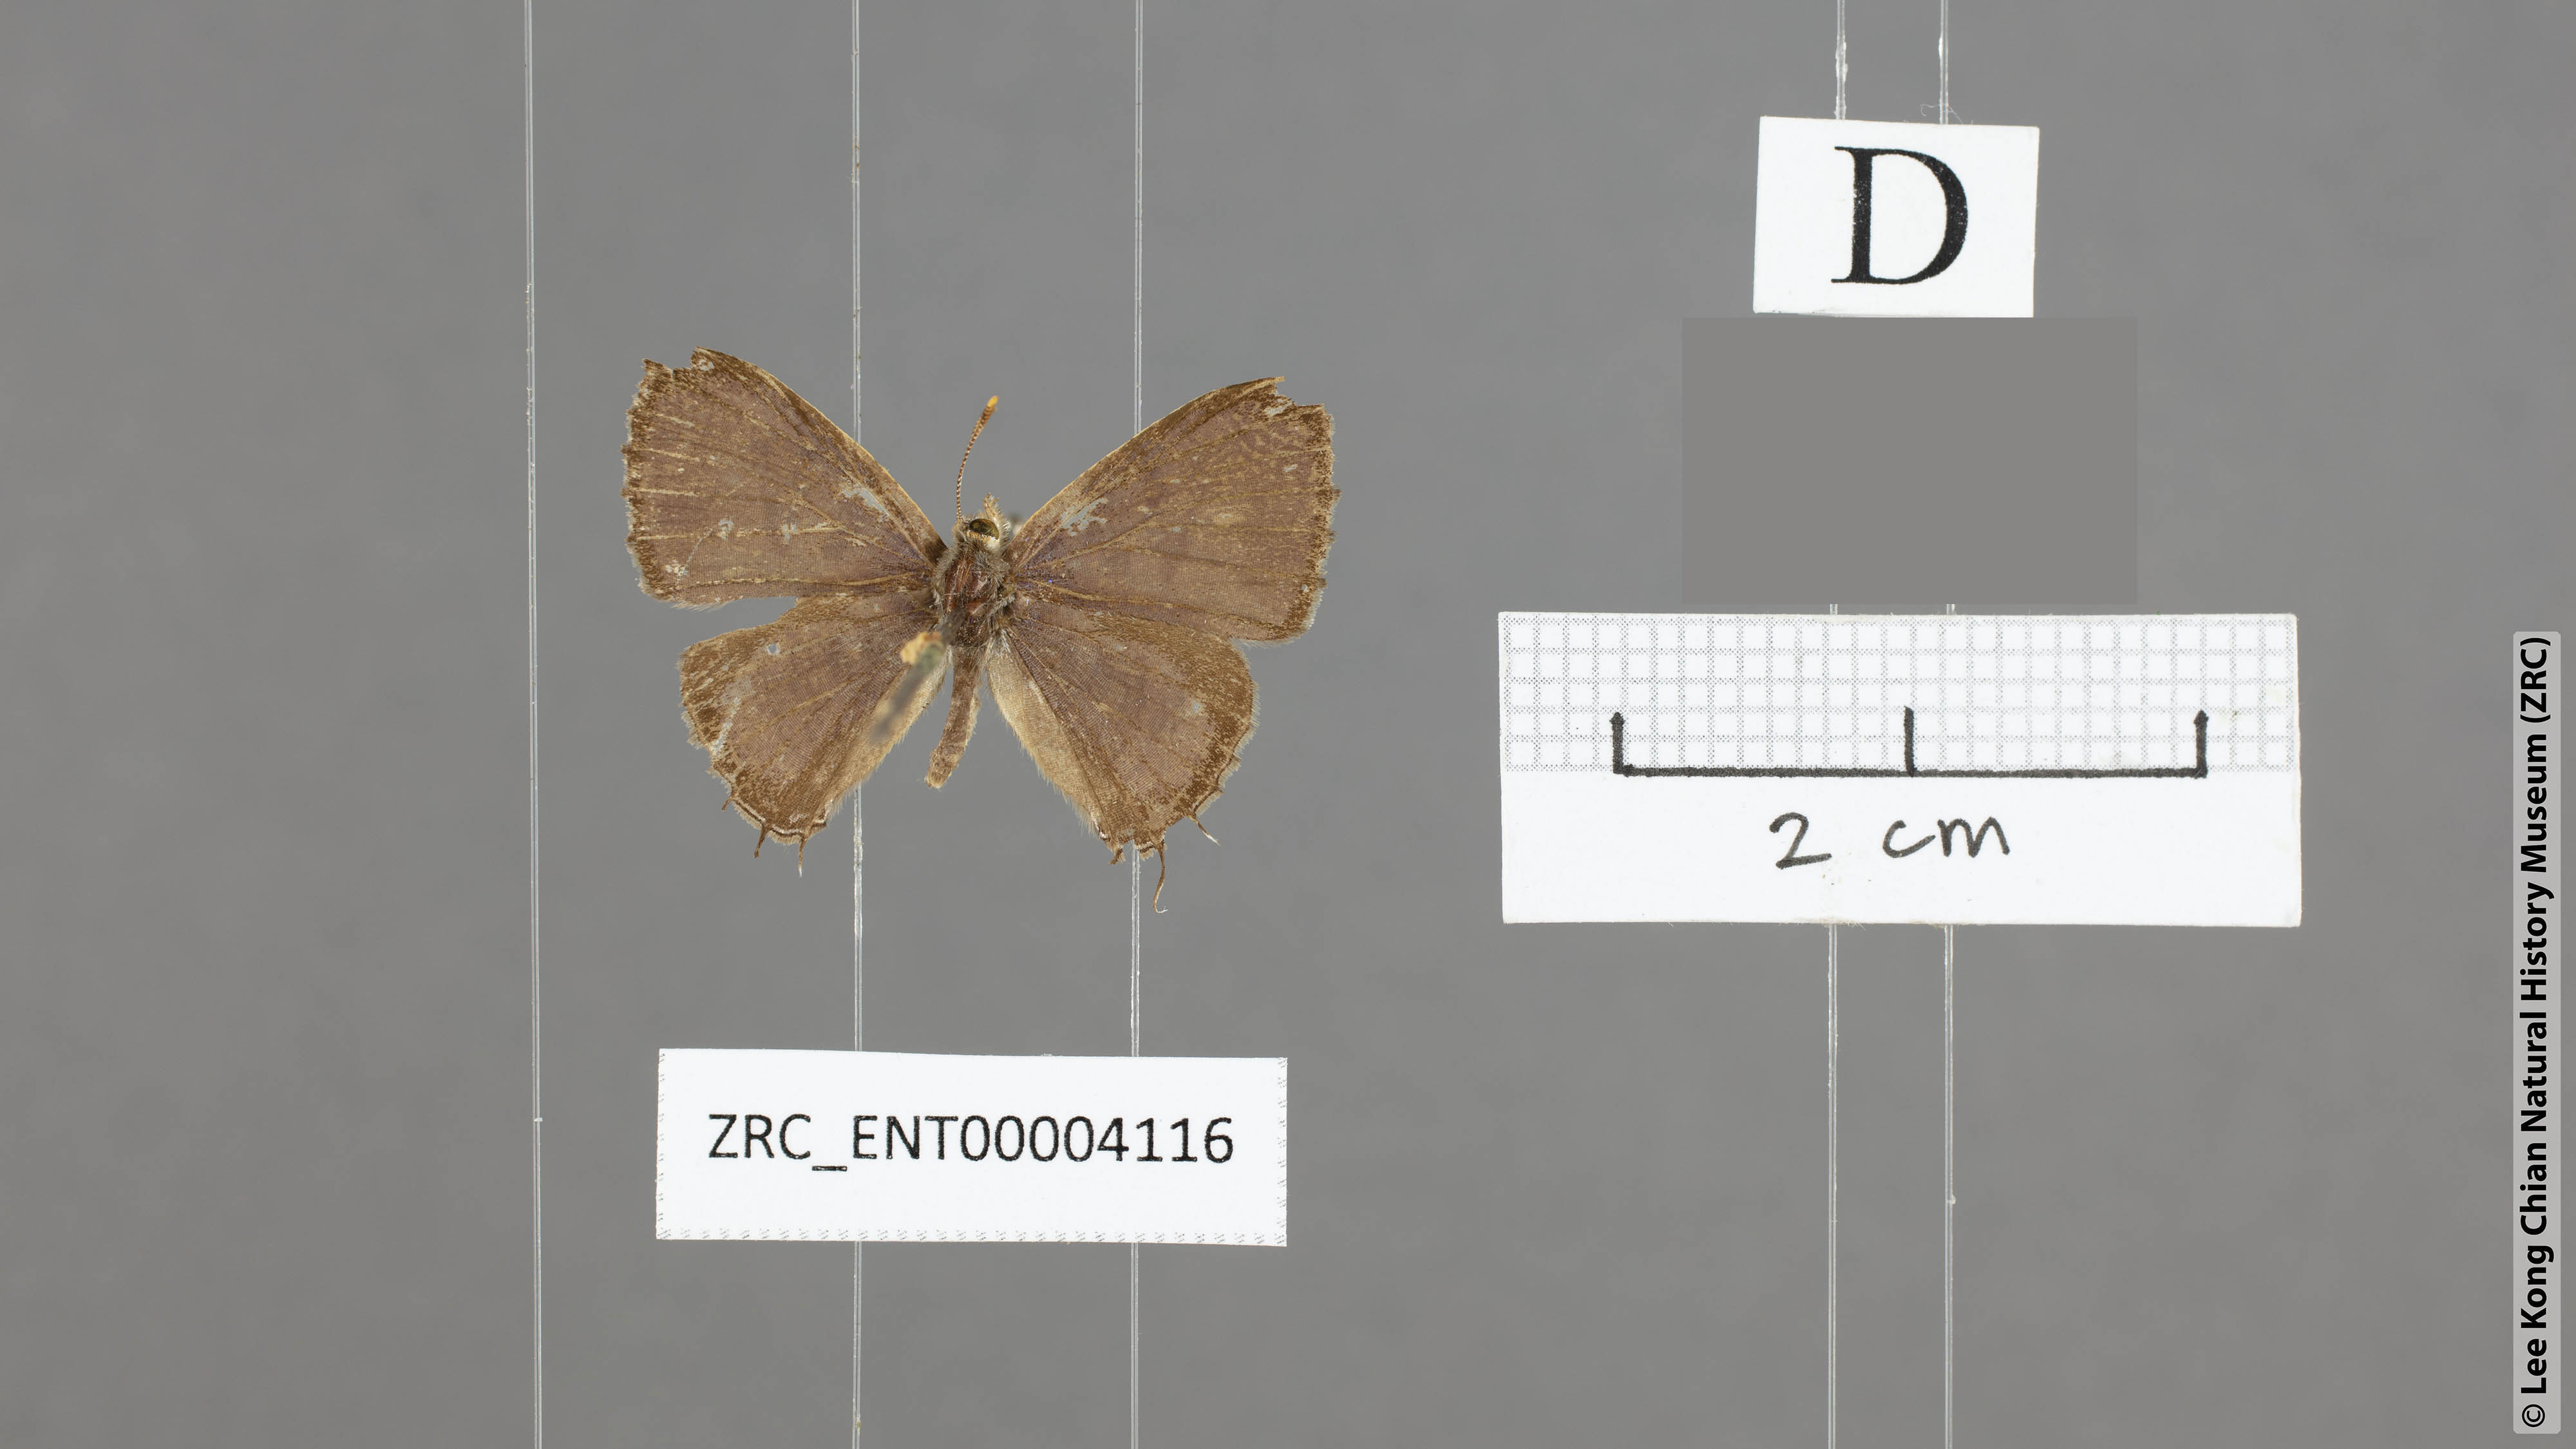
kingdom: Animalia
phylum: Arthropoda
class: Insecta
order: Lepidoptera
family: Lycaenidae
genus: Catapaecilma
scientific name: Catapaecilma elegans
